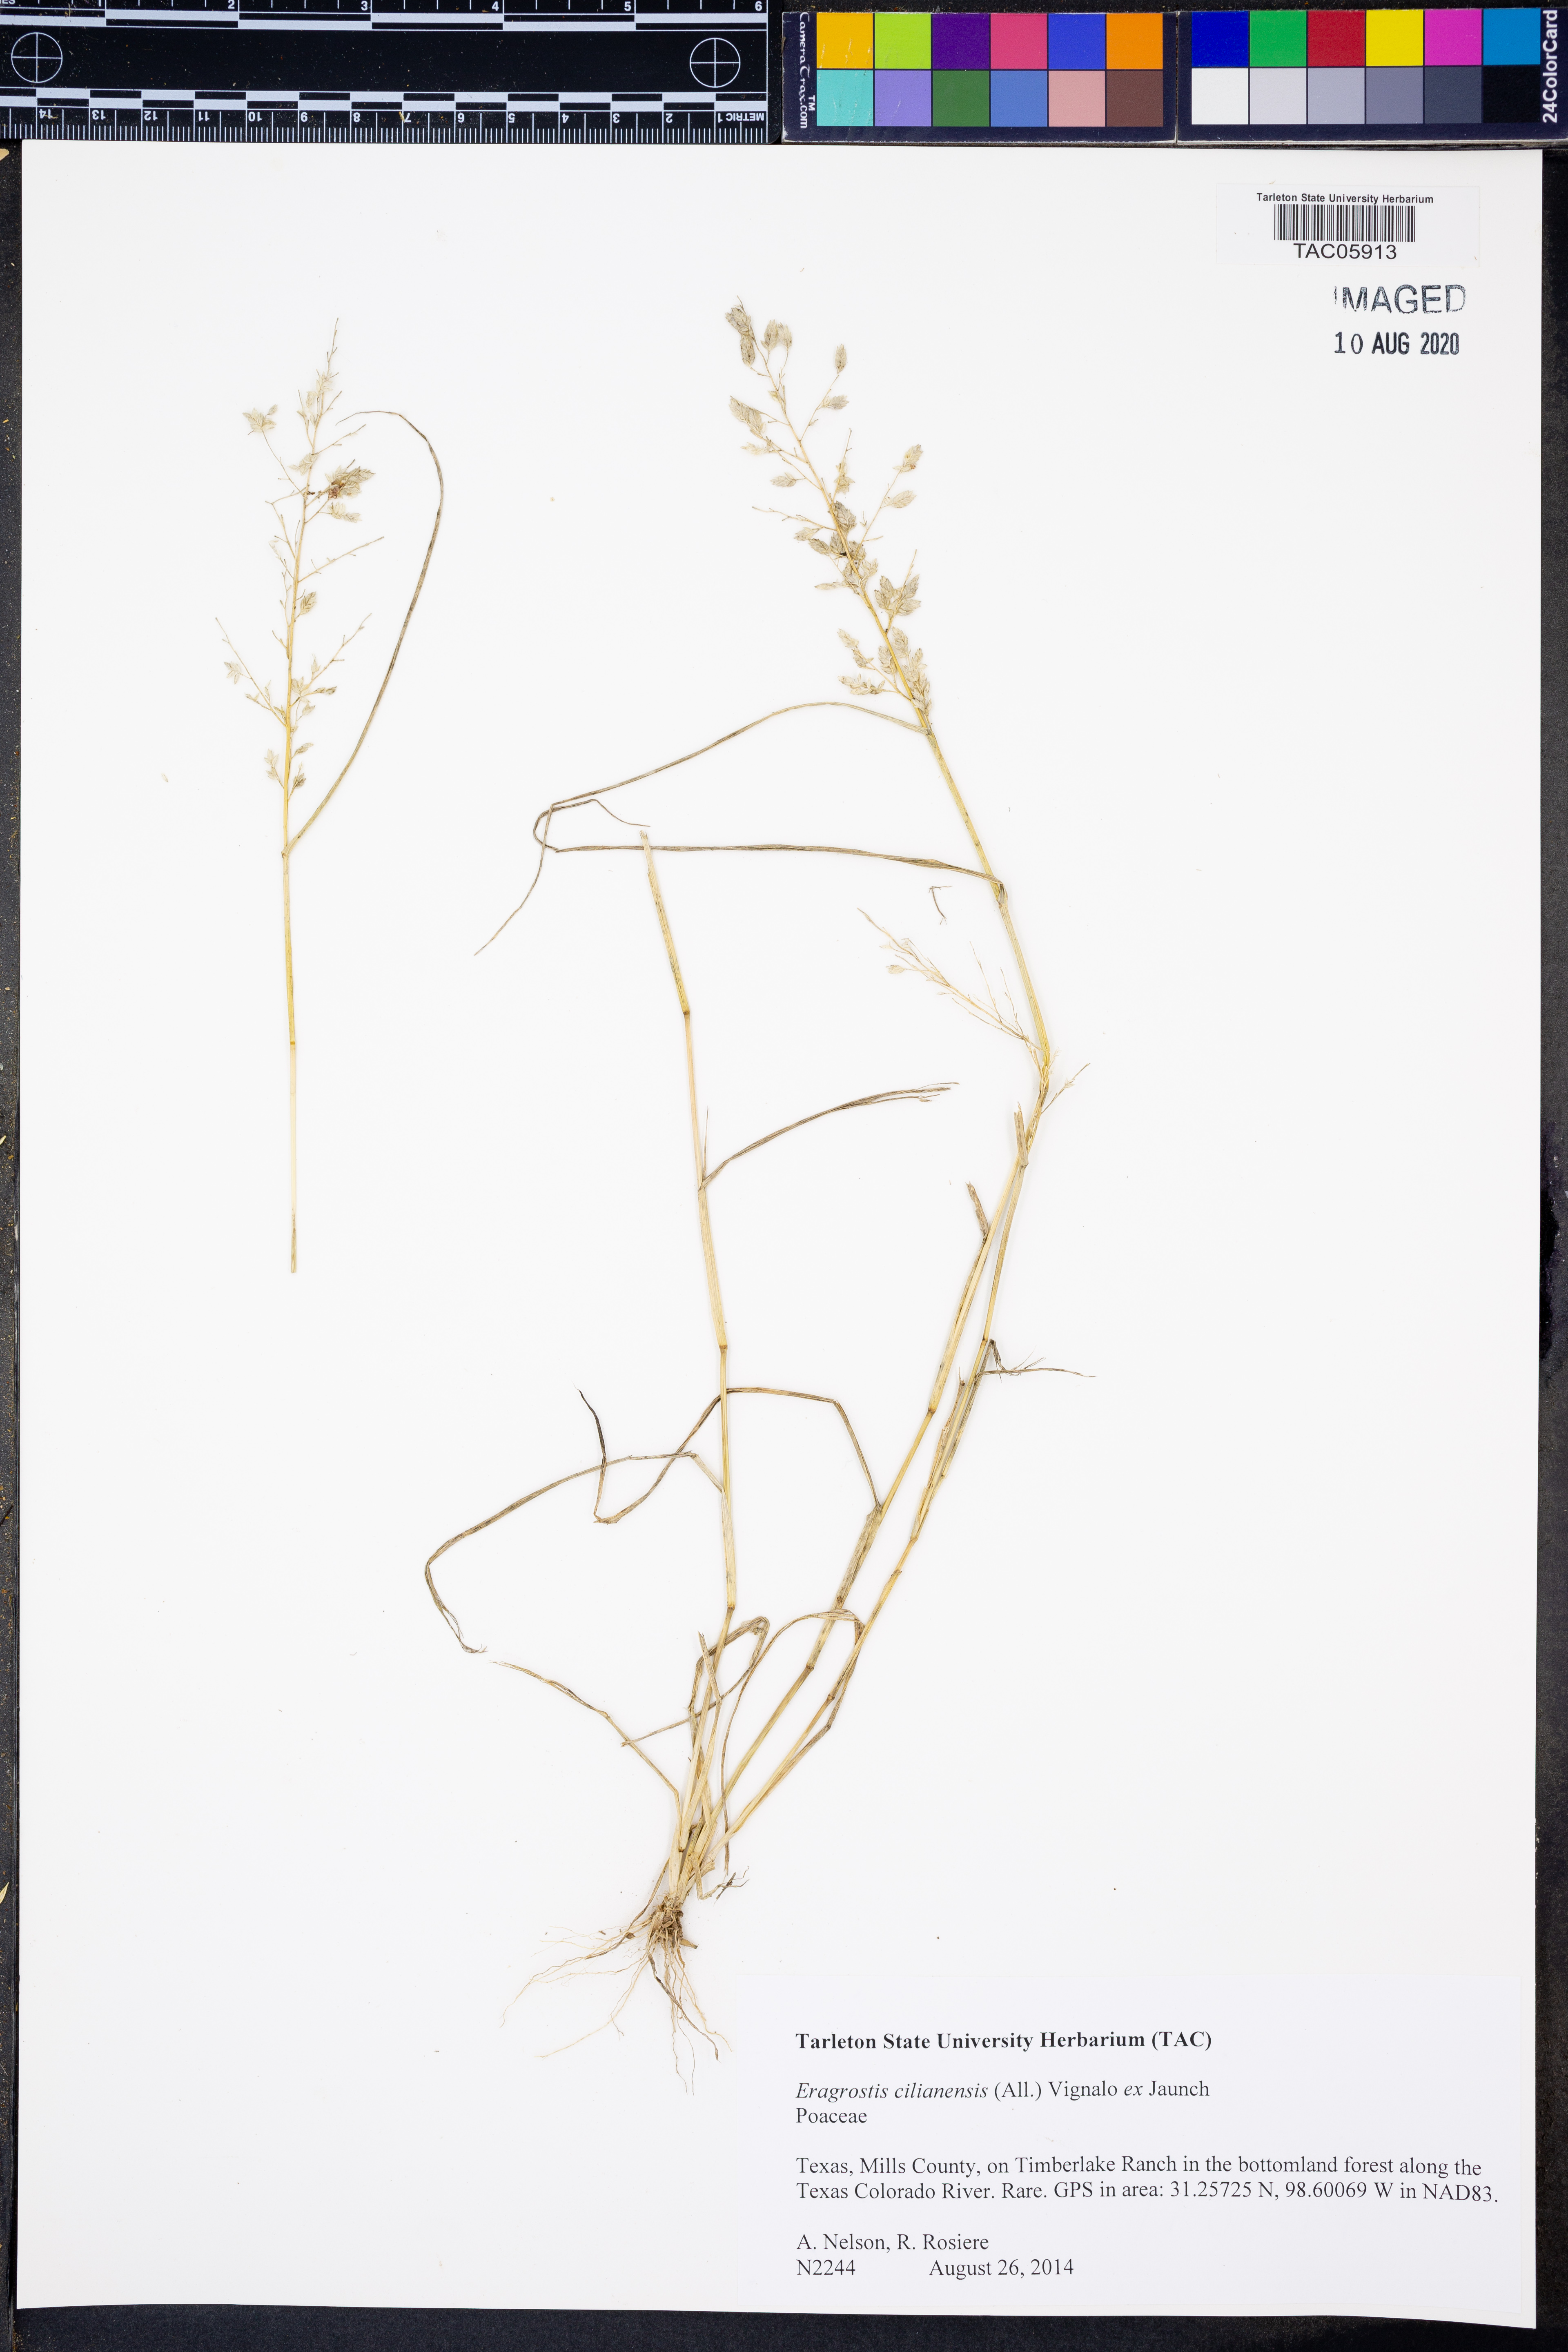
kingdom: Plantae
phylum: Tracheophyta
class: Liliopsida
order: Poales
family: Poaceae
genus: Eragrostis
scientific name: Eragrostis cilianensis
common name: Stinkgrass
